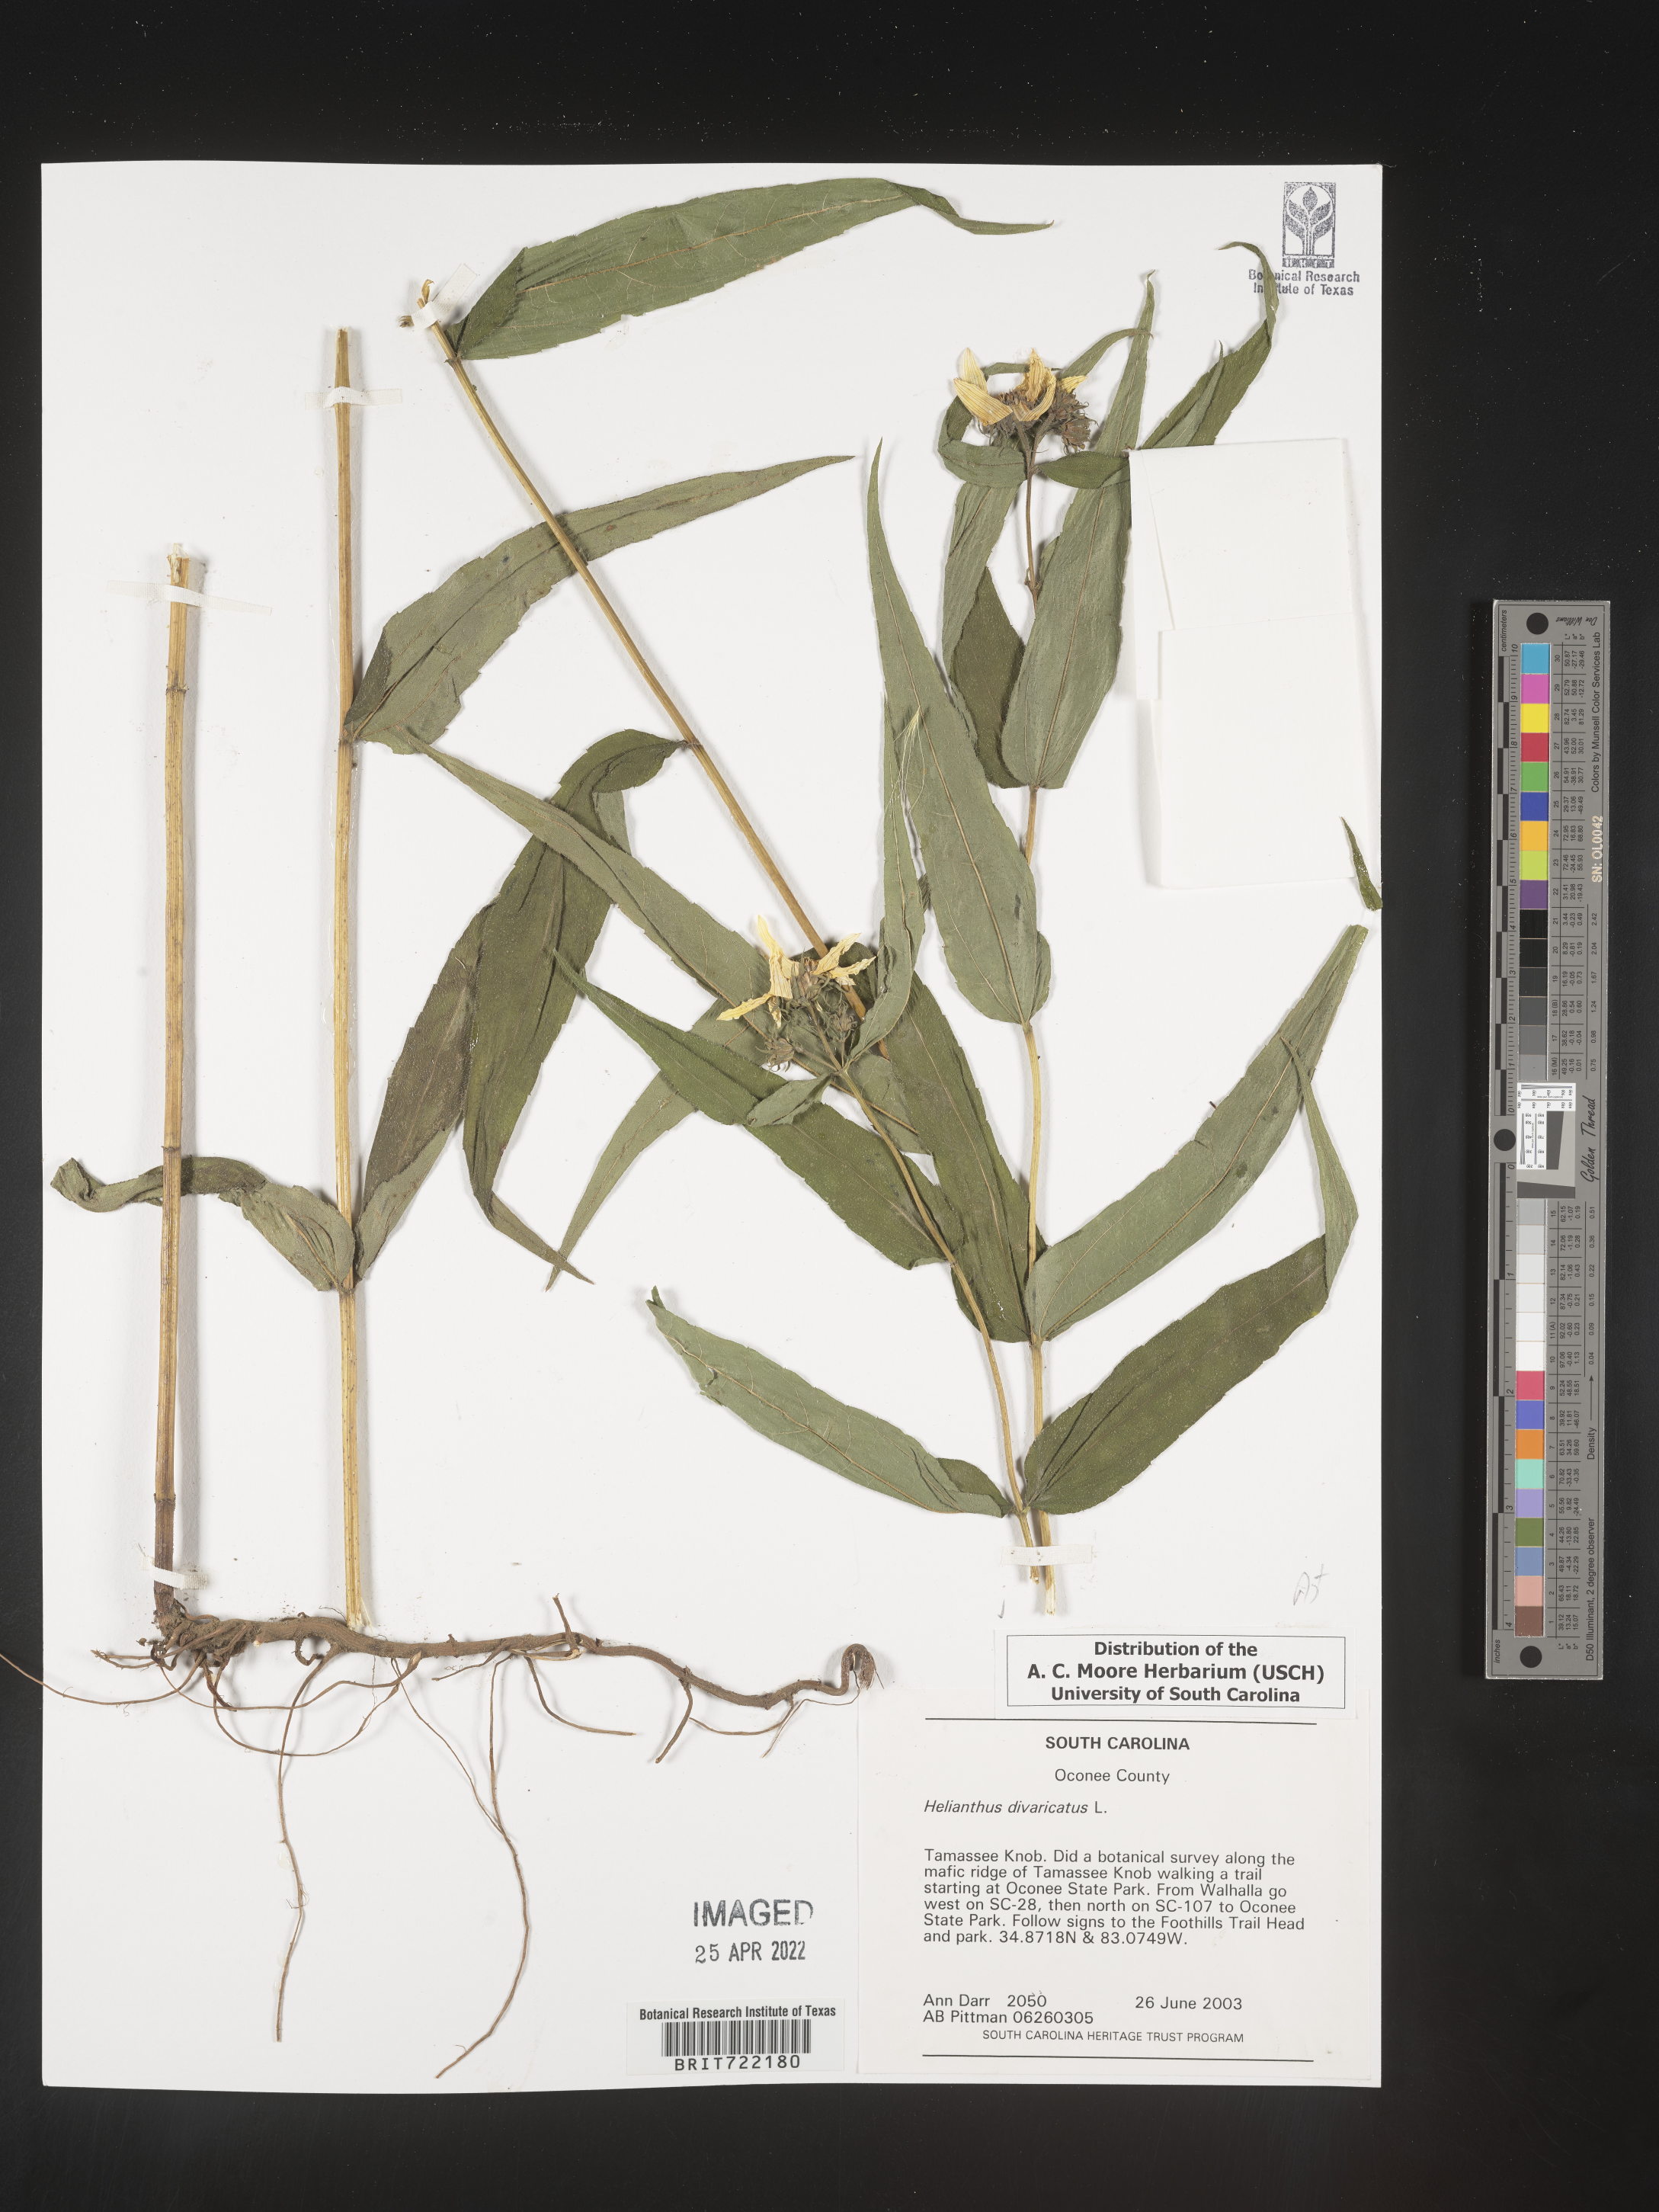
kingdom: Plantae
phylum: Tracheophyta
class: Magnoliopsida
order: Asterales
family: Asteraceae
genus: Helianthus
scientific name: Helianthus divaricatus
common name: Divergent sunflower
